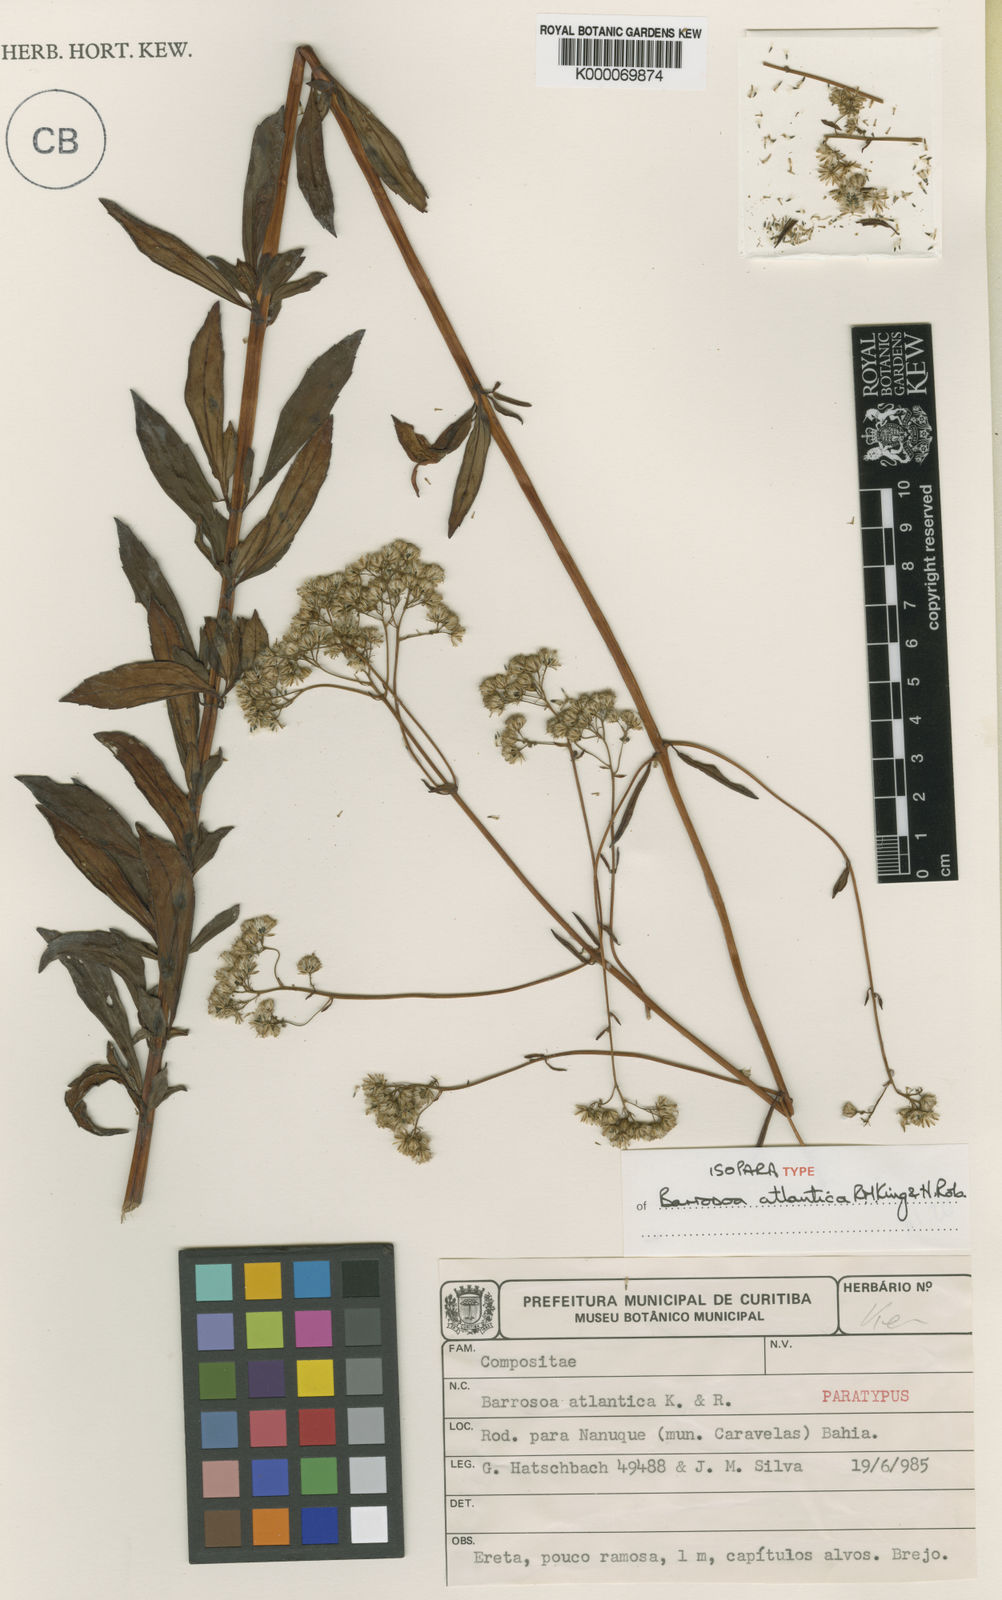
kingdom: Plantae
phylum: Tracheophyta
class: Magnoliopsida
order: Asterales
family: Asteraceae
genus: Barrosoa
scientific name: Barrosoa atlantica
